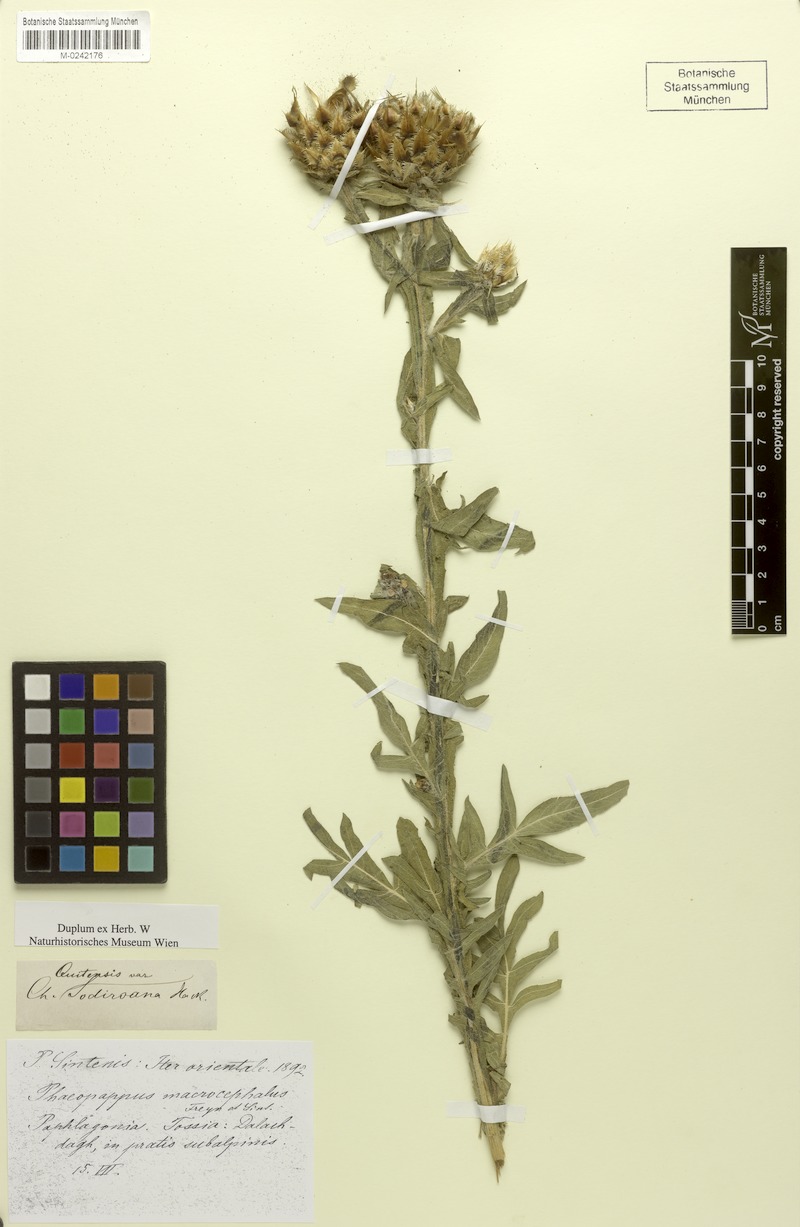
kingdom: Plantae
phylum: Tracheophyta
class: Magnoliopsida
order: Asterales
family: Asteraceae
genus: Centaurea
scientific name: Centaurea paphlagonica
